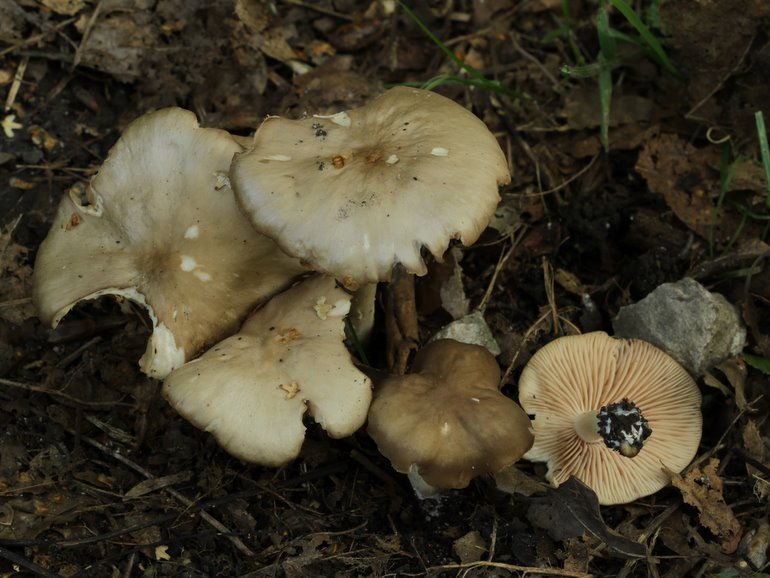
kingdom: Fungi
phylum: Basidiomycota
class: Agaricomycetes
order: Agaricales
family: Entolomataceae
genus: Entoloma
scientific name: Entoloma rhodopolium
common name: skov-rødblad
